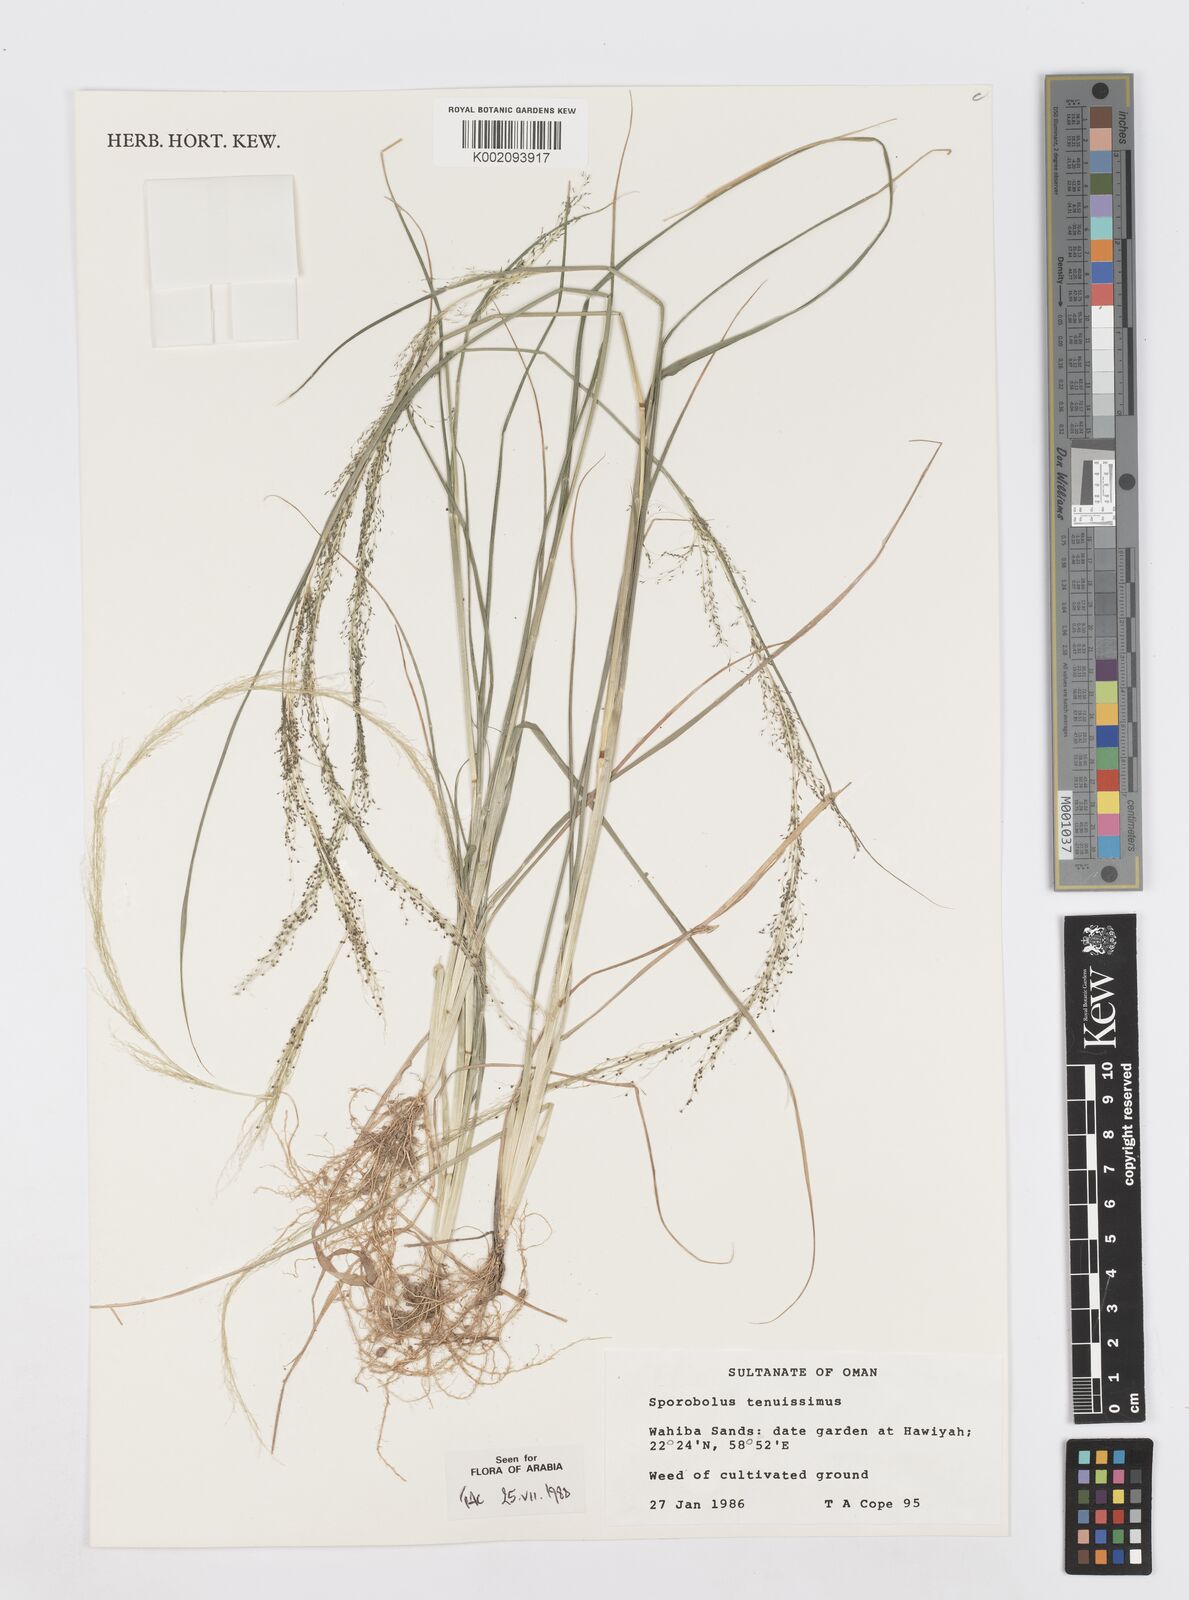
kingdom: Plantae
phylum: Tracheophyta
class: Liliopsida
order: Poales
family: Poaceae
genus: Sporobolus
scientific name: Sporobolus tenuissimus
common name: Tropical dropseed
